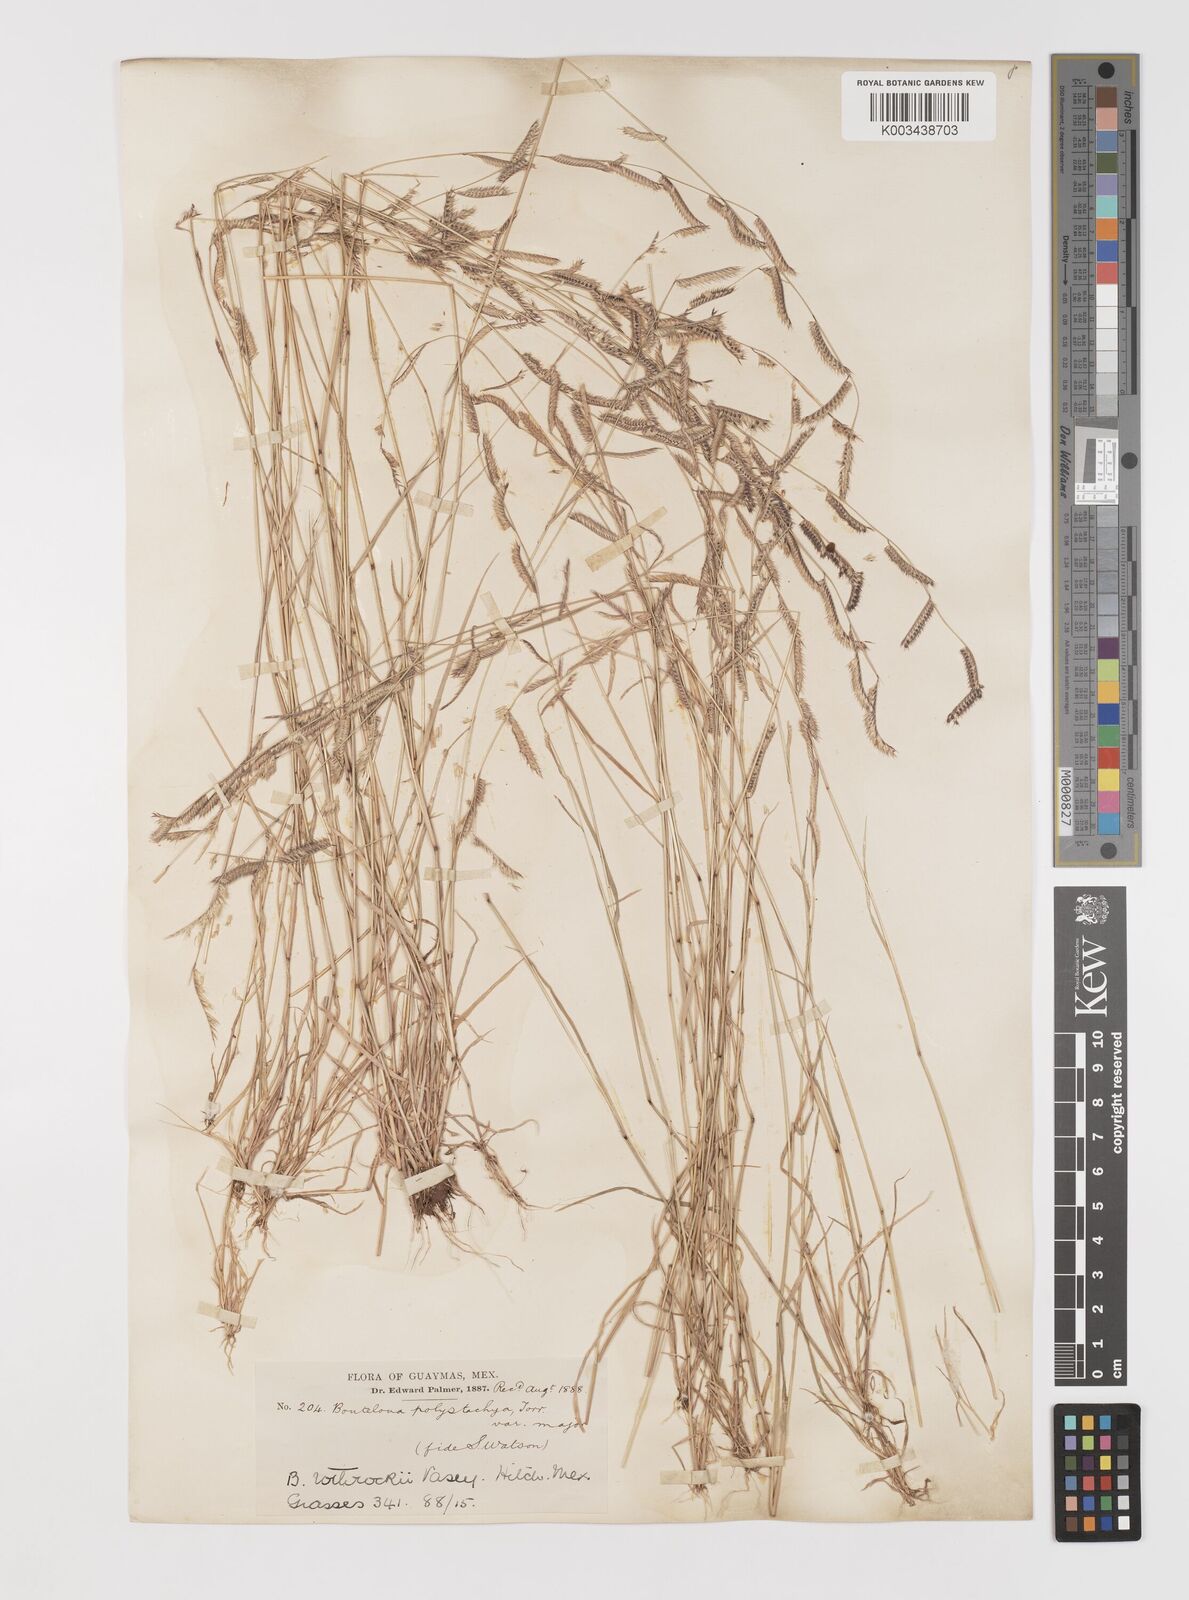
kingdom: Plantae
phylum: Tracheophyta
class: Liliopsida
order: Poales
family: Poaceae
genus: Bouteloua
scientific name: Bouteloua barbata
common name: Six-weeks grama
